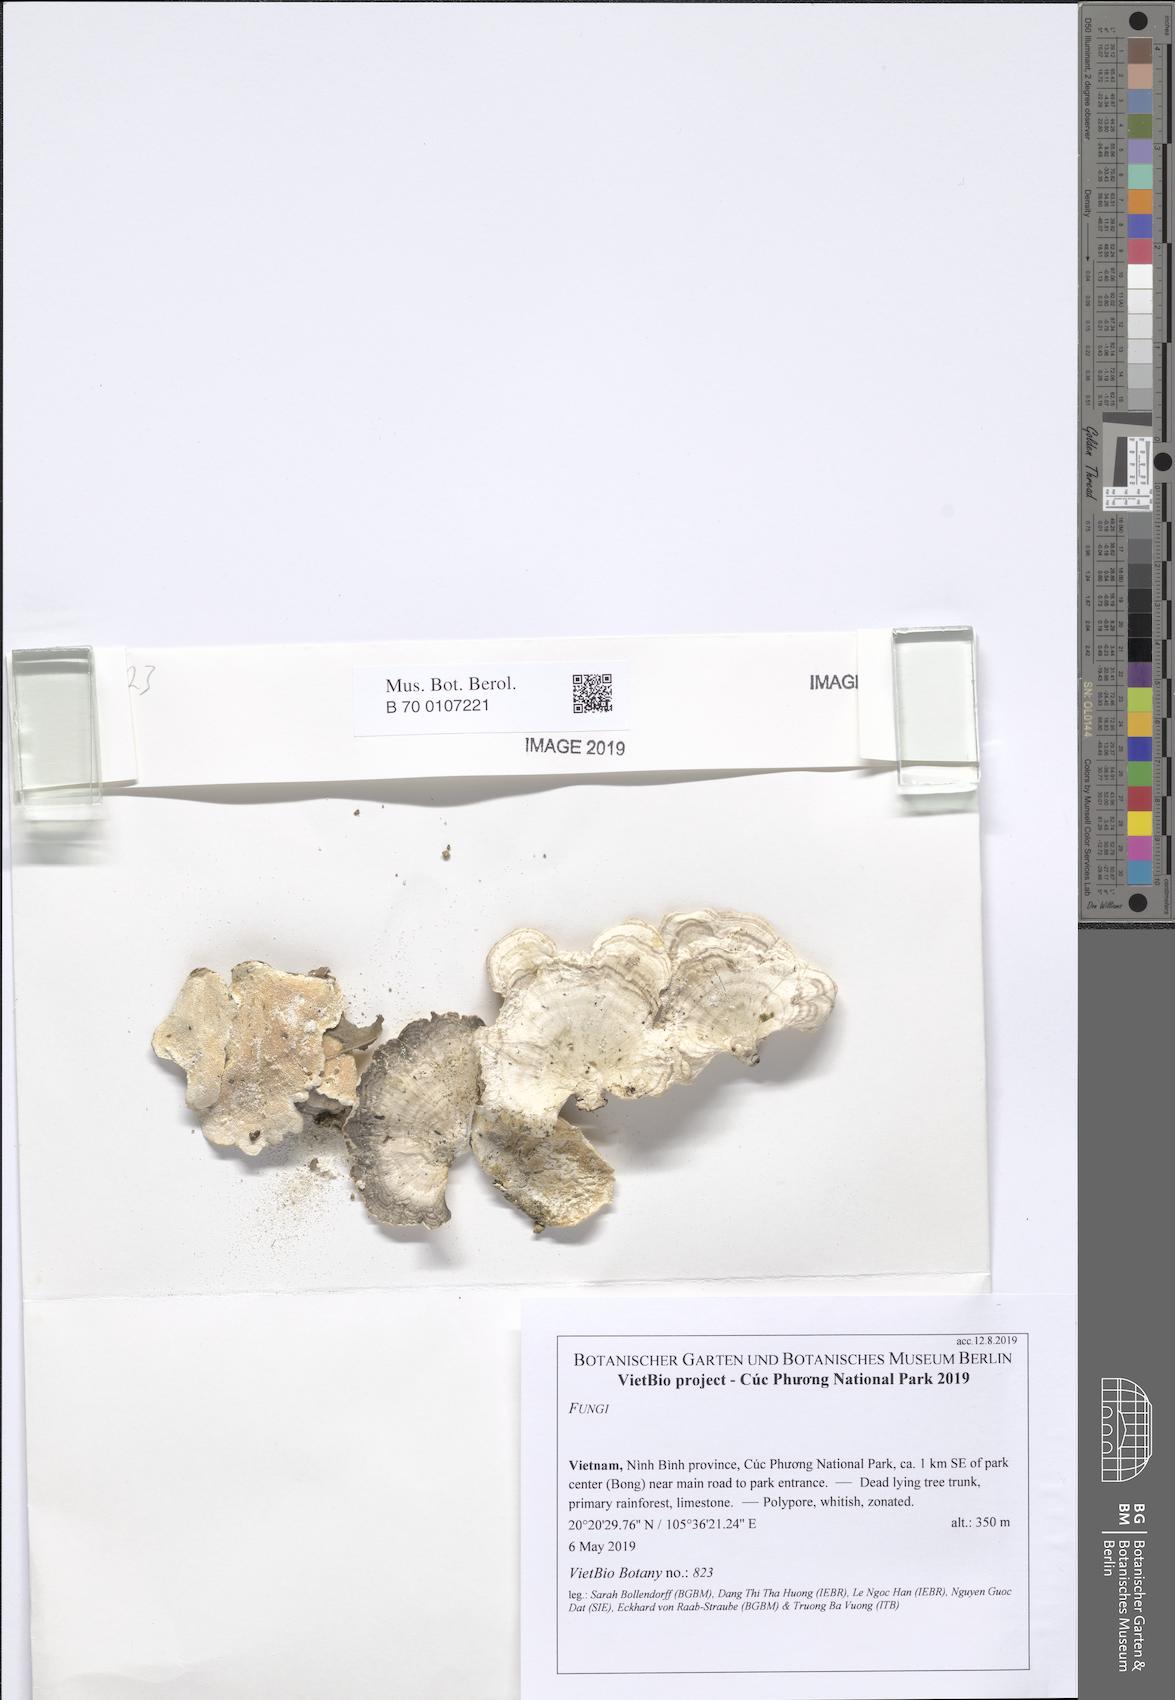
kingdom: Fungi
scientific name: Fungi
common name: Fungi
